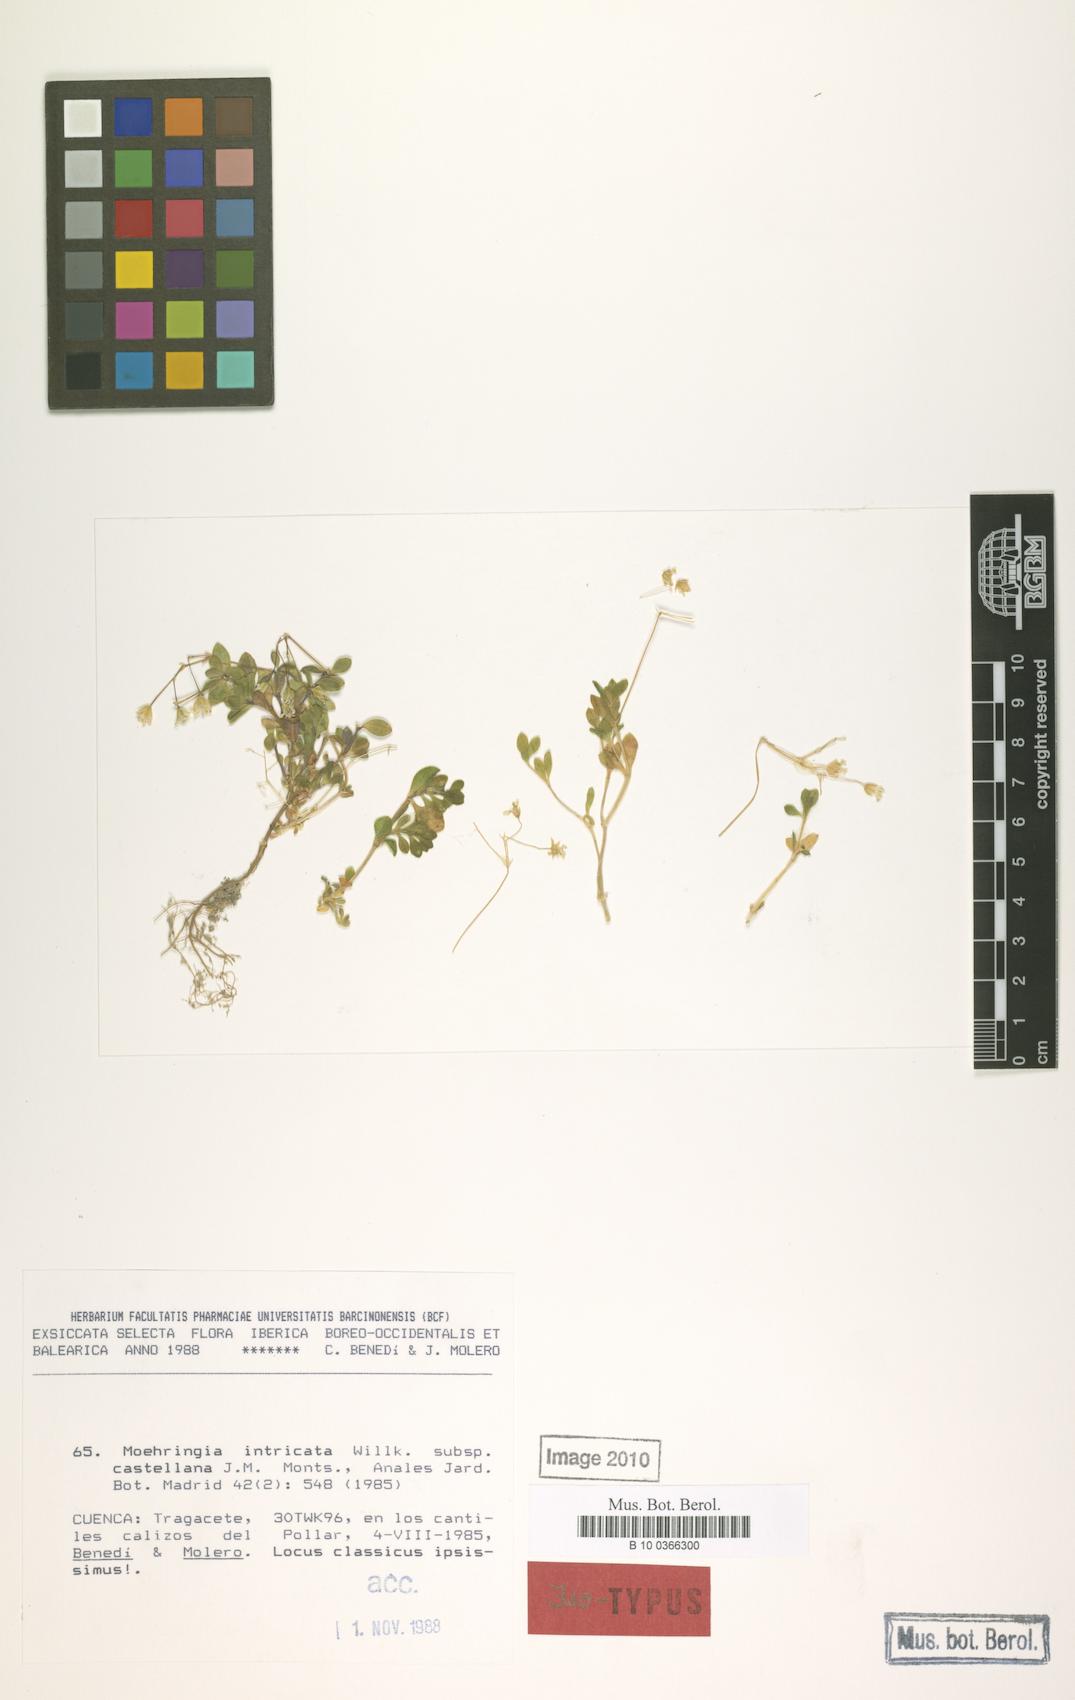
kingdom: Plantae
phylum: Tracheophyta
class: Magnoliopsida
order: Caryophyllales
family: Caryophyllaceae
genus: Moehringia
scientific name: Moehringia castellana
